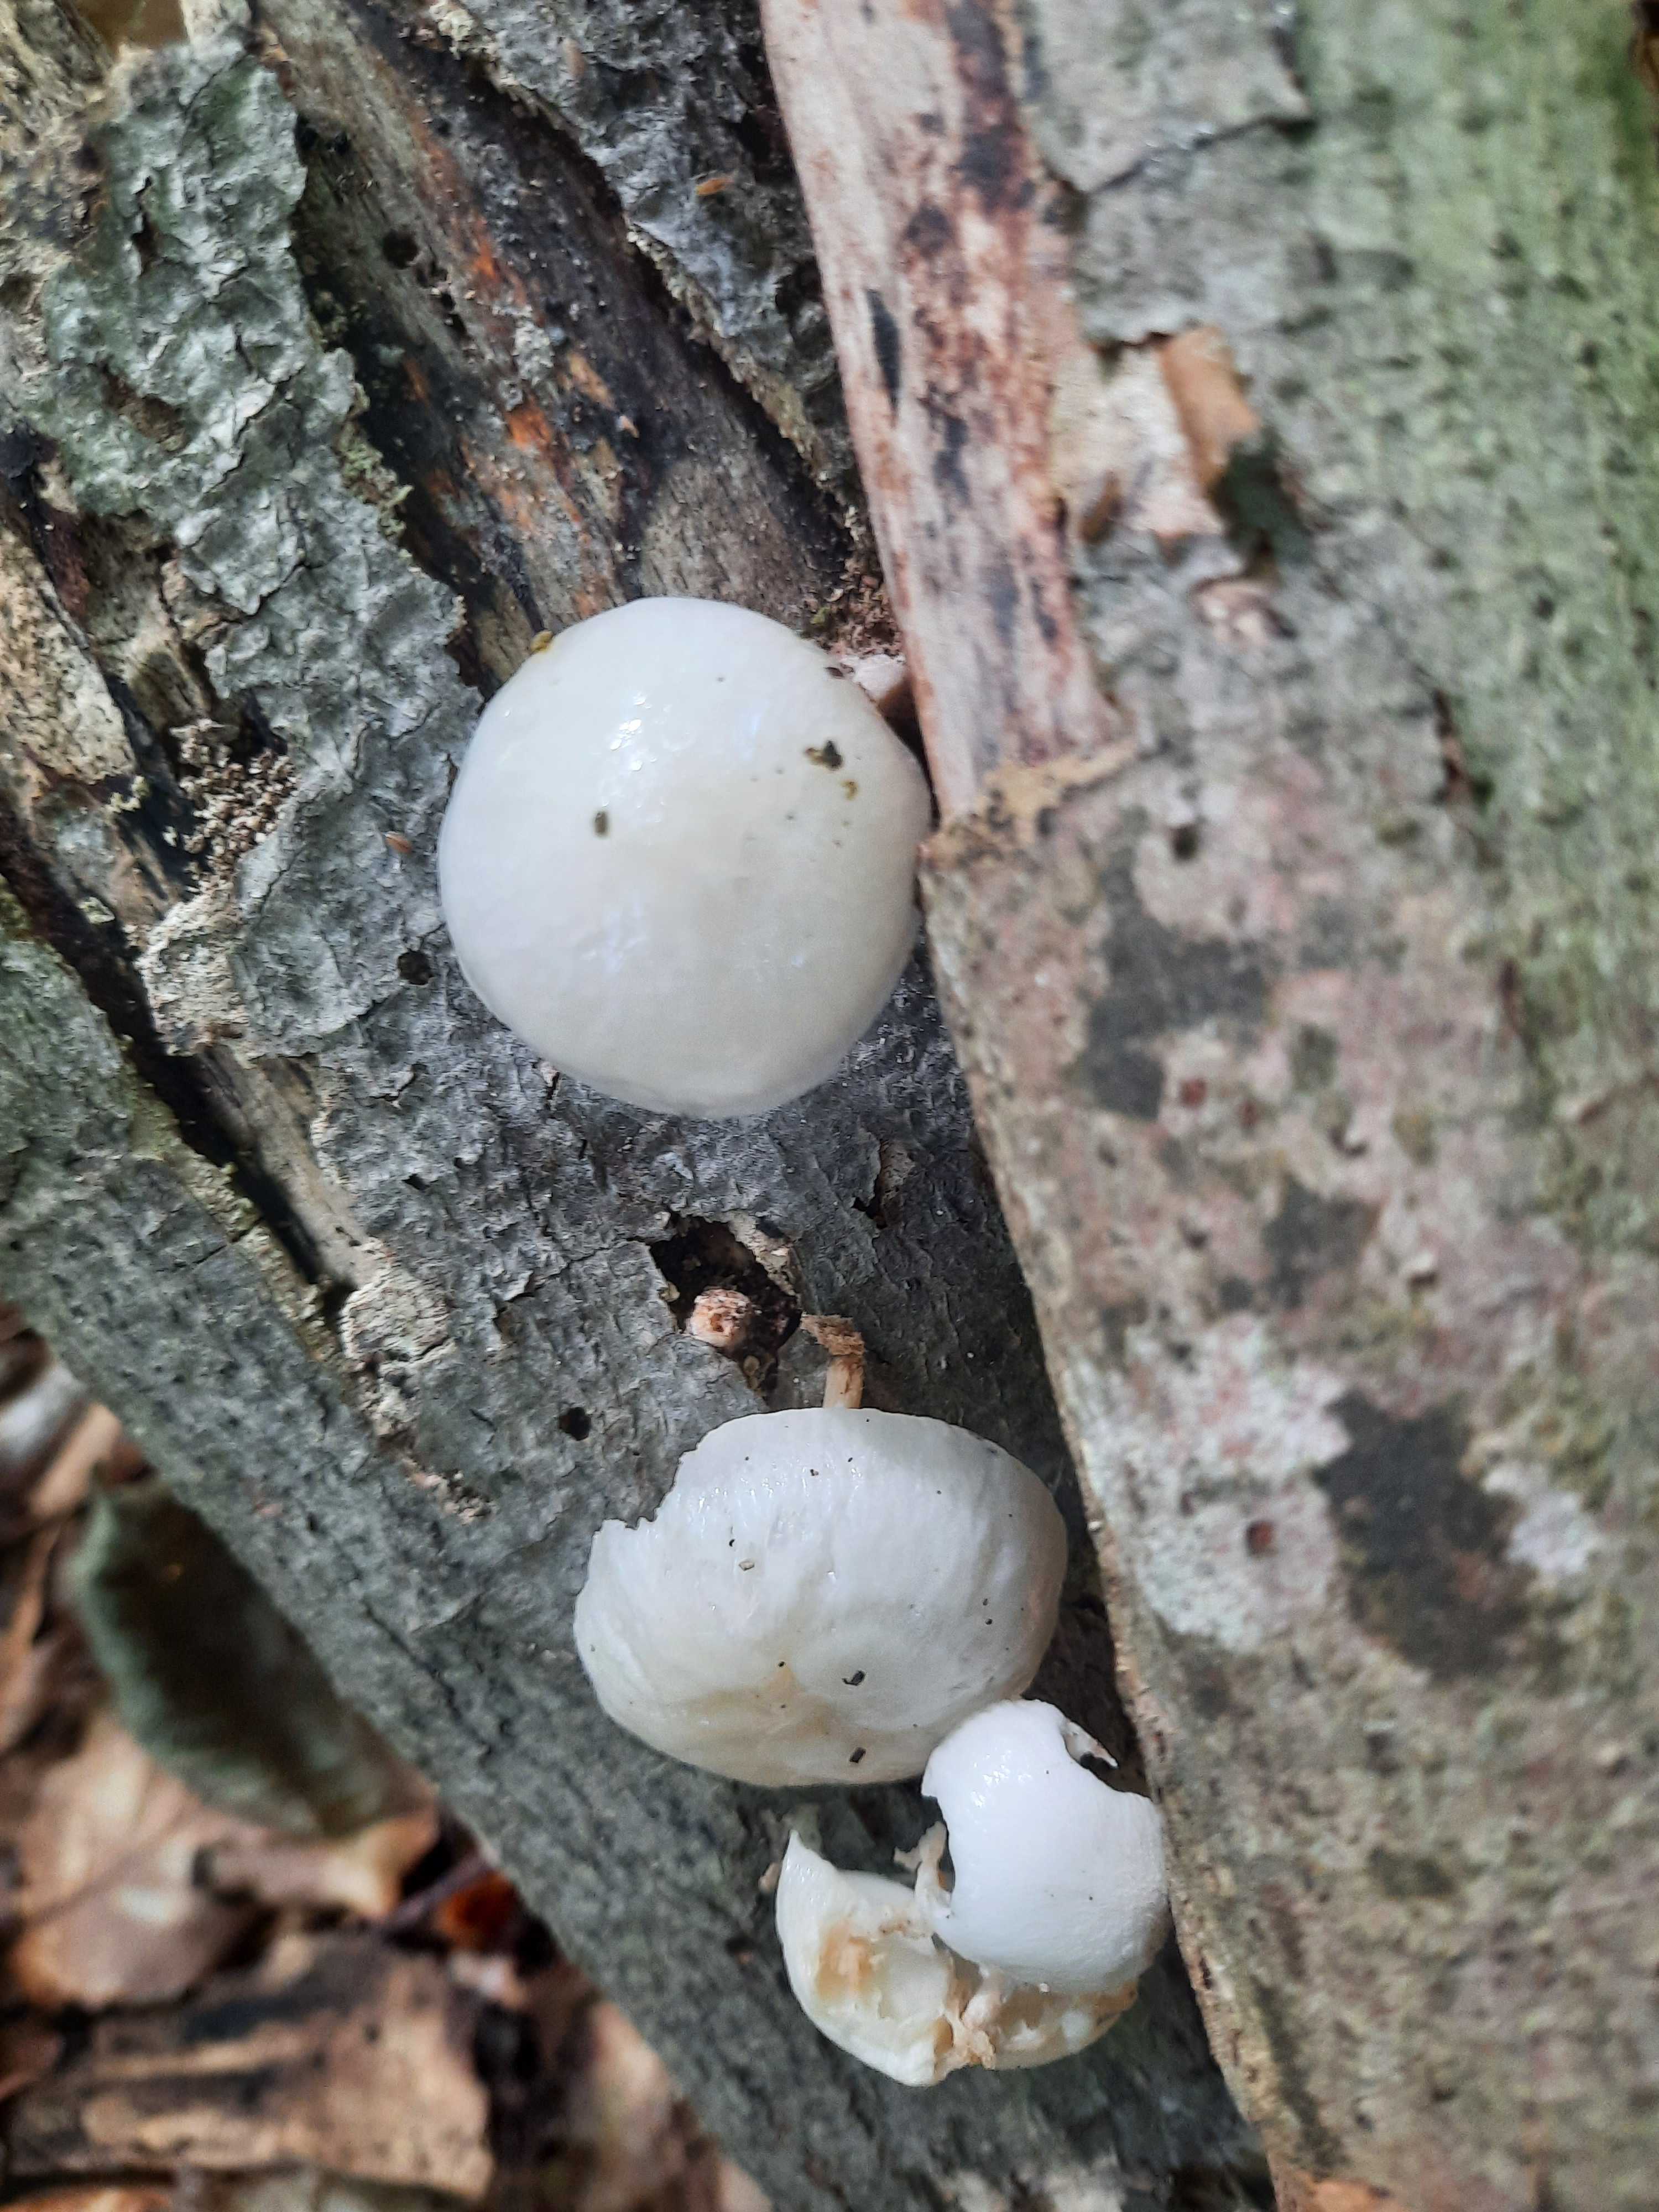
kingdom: Fungi
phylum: Basidiomycota
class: Agaricomycetes
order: Agaricales
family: Physalacriaceae
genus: Mucidula
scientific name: Mucidula mucida
